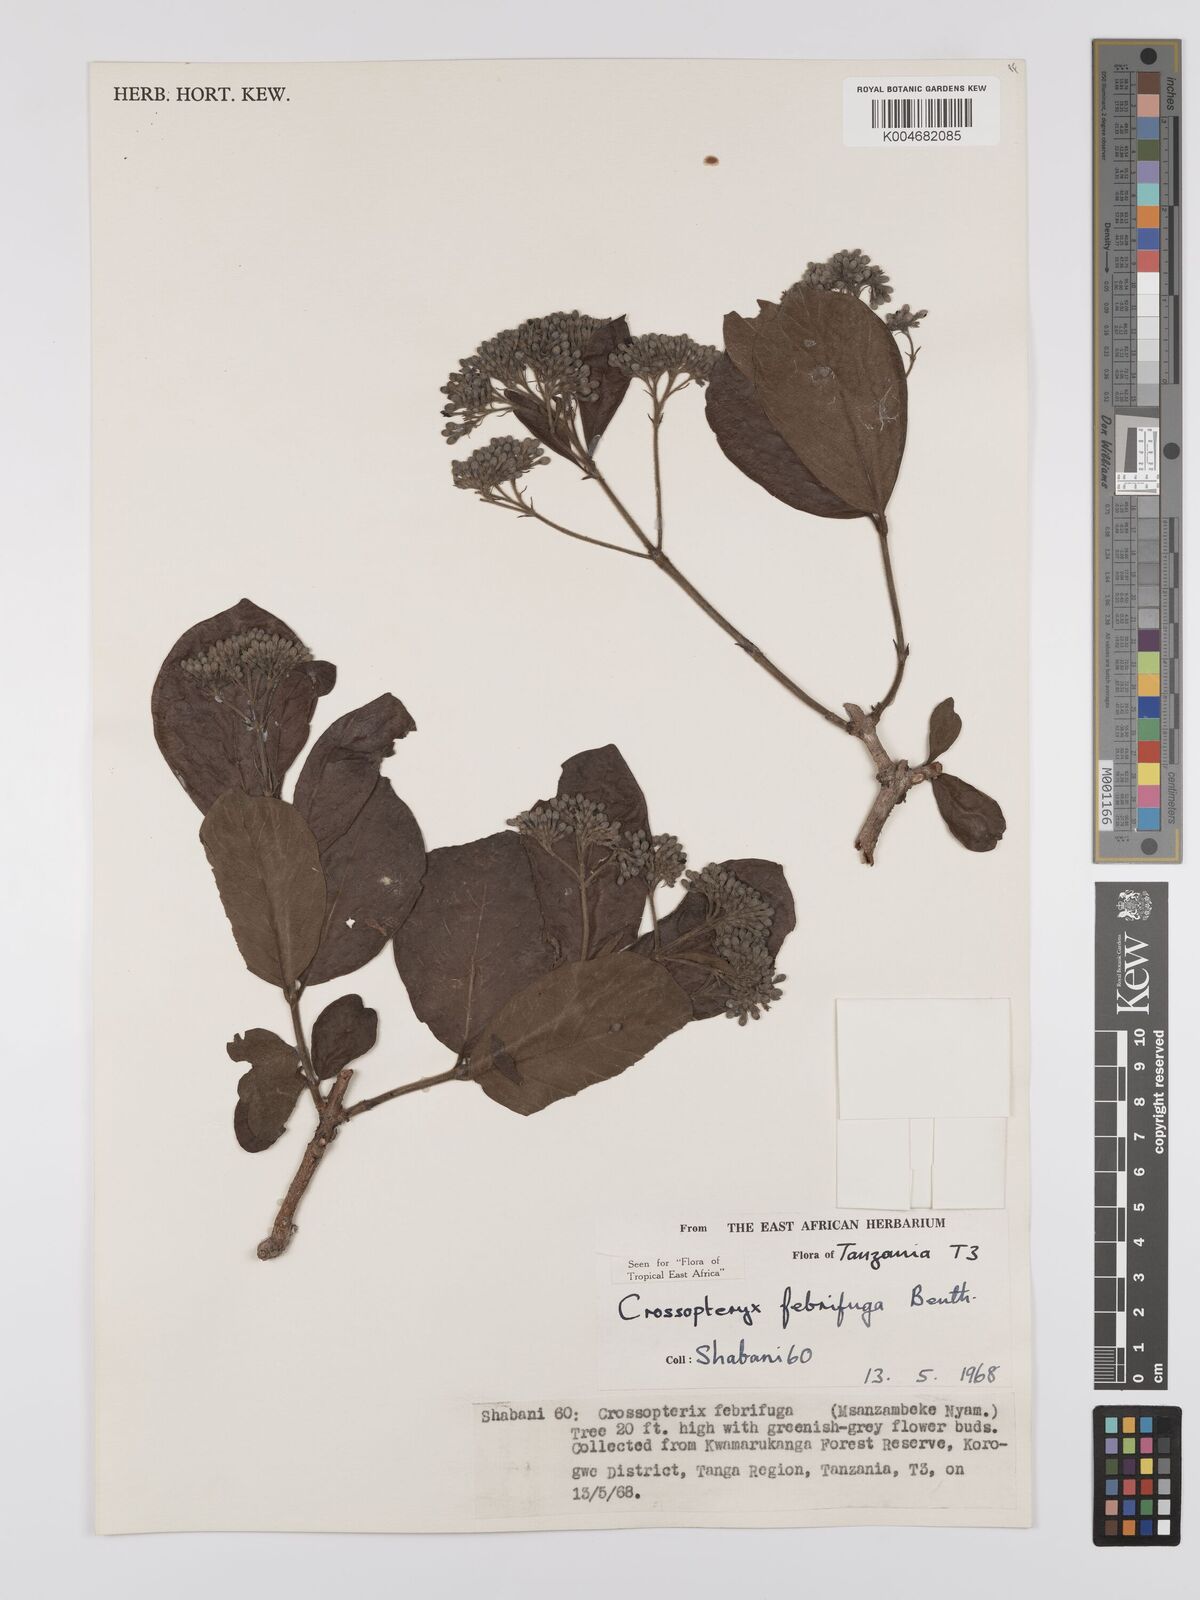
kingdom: Plantae
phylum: Tracheophyta
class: Magnoliopsida
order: Gentianales
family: Rubiaceae
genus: Crossopteryx
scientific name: Crossopteryx febrifuga
